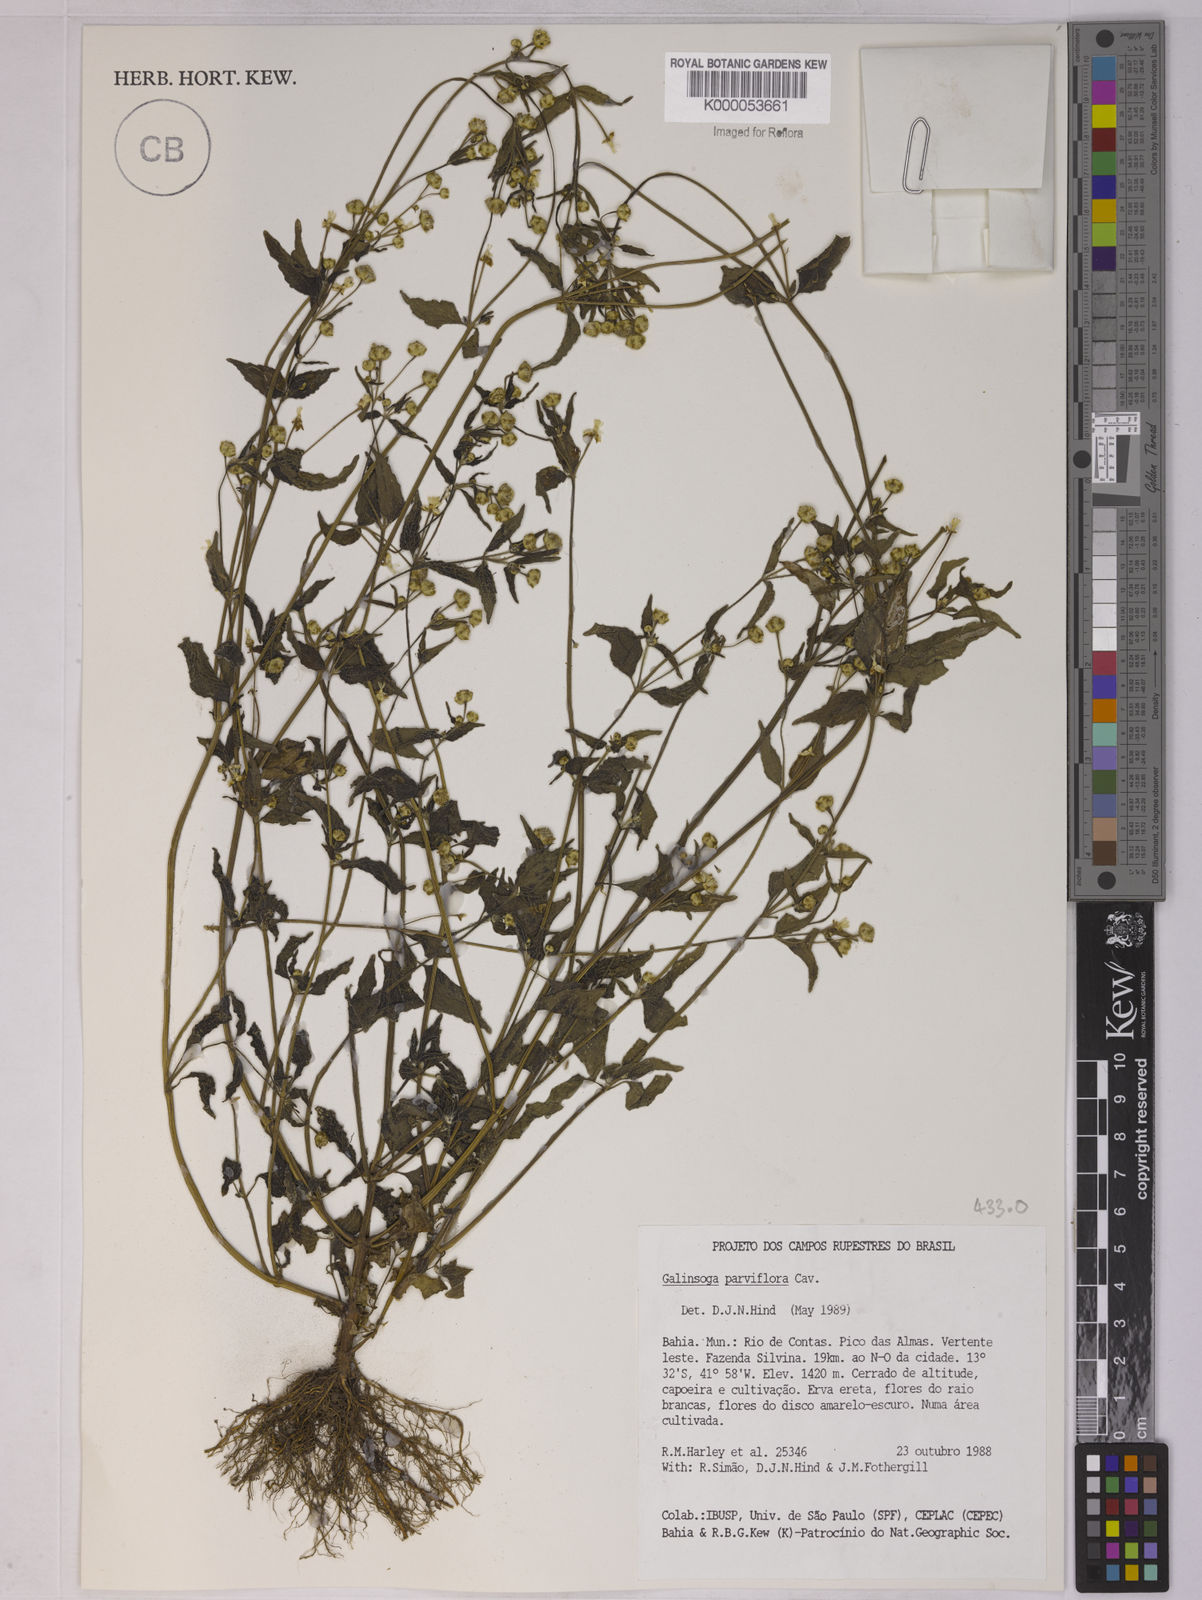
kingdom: Plantae
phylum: Tracheophyta
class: Magnoliopsida
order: Asterales
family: Asteraceae
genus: Galinsoga
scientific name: Galinsoga parviflora
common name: Gallant soldier
